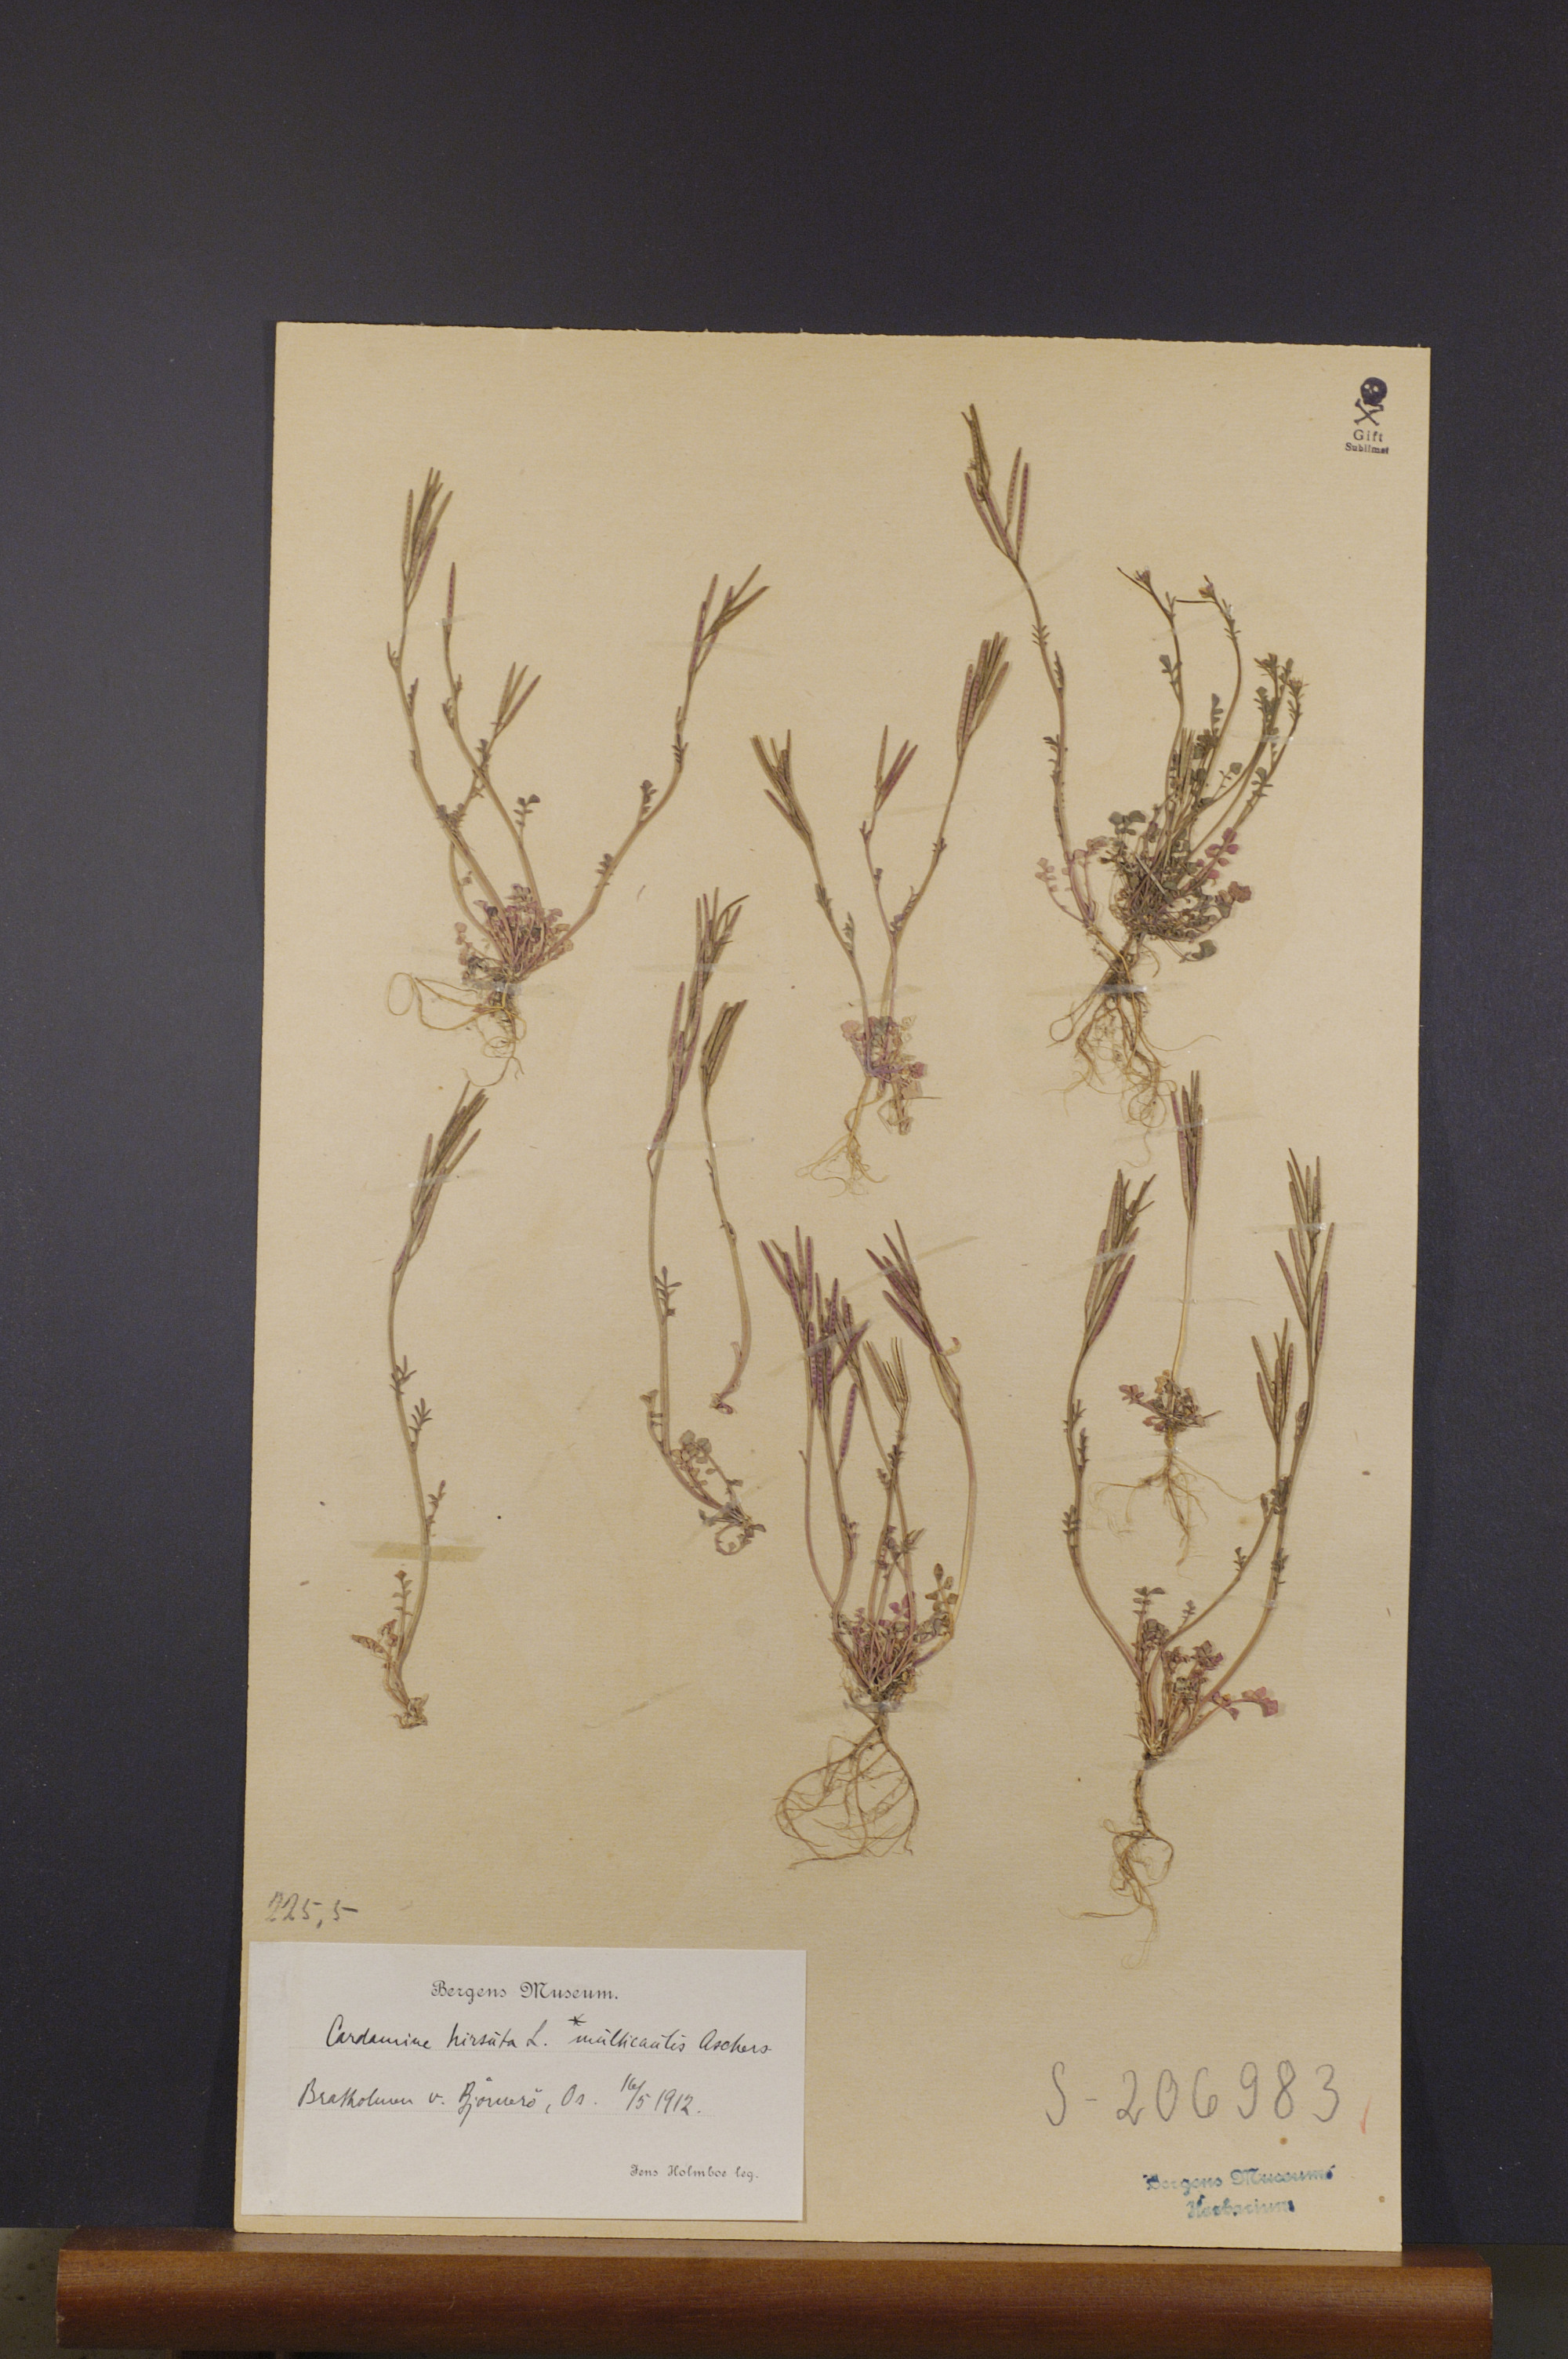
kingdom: Plantae
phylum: Tracheophyta
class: Magnoliopsida
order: Brassicales
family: Brassicaceae
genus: Cardamine
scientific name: Cardamine hirsuta
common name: Hairy bittercress
